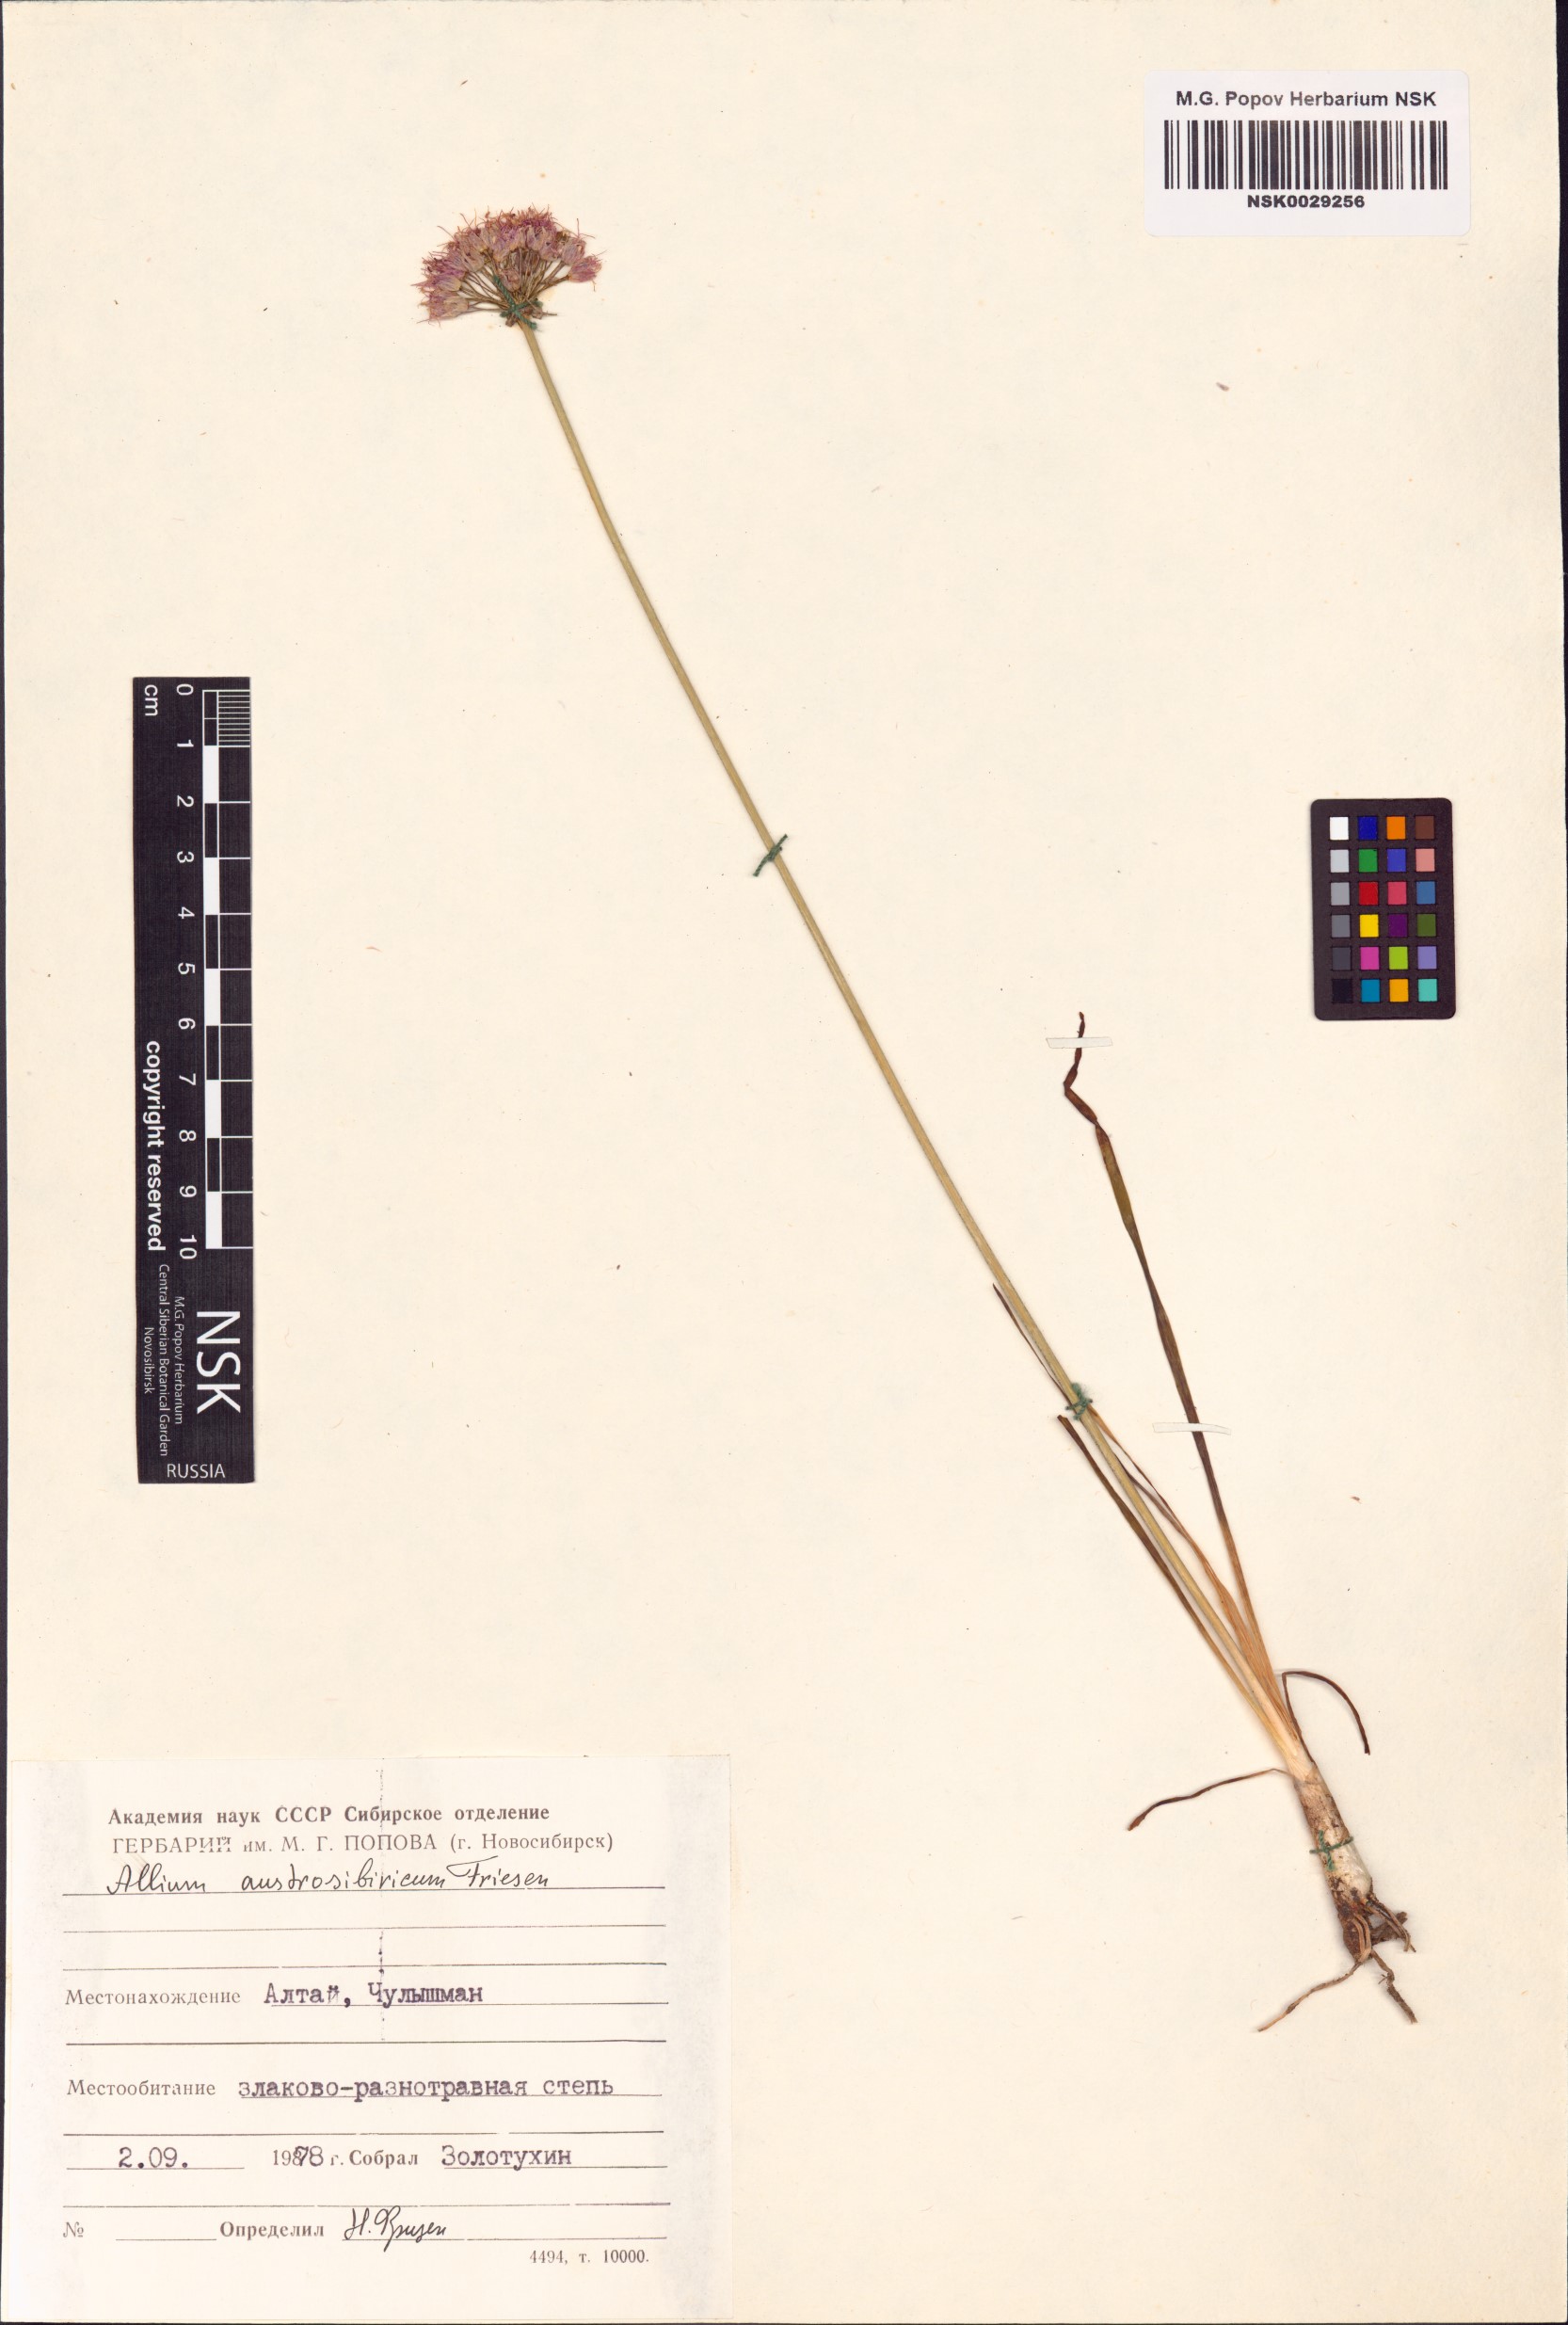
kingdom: Plantae
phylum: Tracheophyta
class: Liliopsida
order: Asparagales
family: Amaryllidaceae
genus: Allium
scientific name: Allium austrosibiricum
